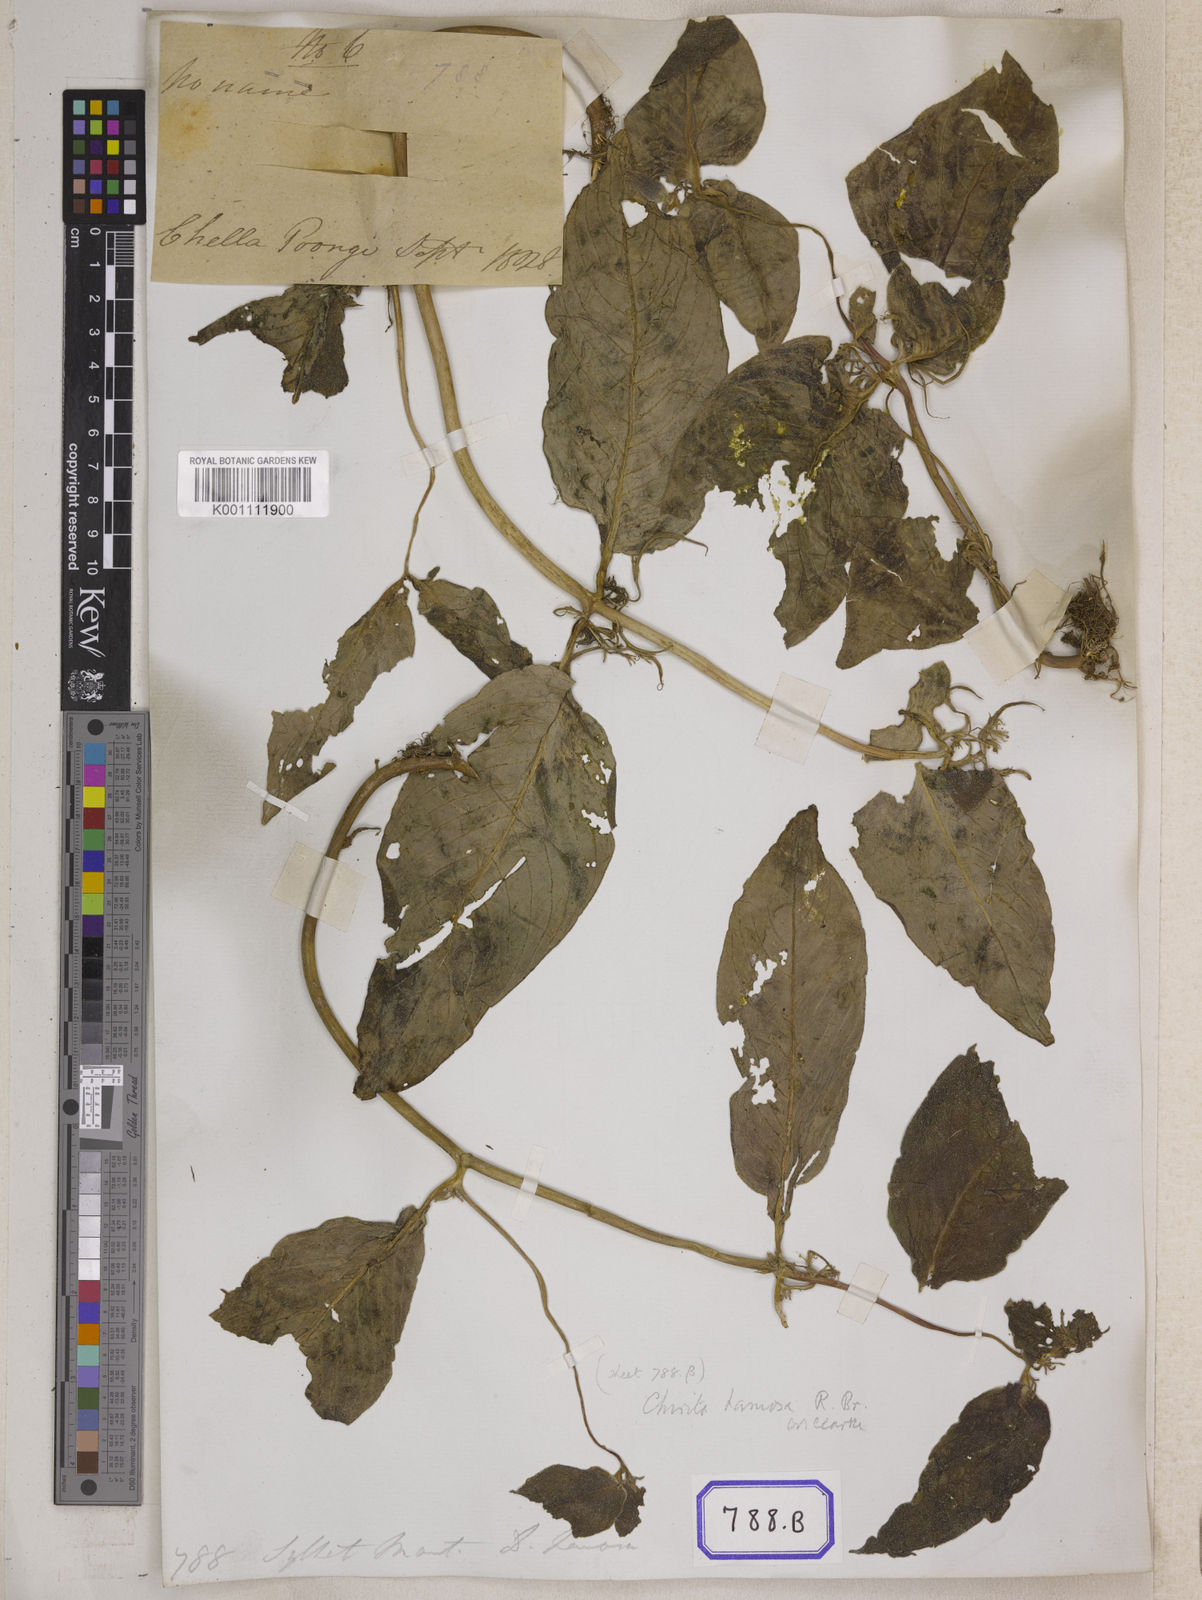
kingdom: Plantae
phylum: Tracheophyta
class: Magnoliopsida
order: Lamiales
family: Gesneriaceae
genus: Didymocarpus
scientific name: Didymocarpus
